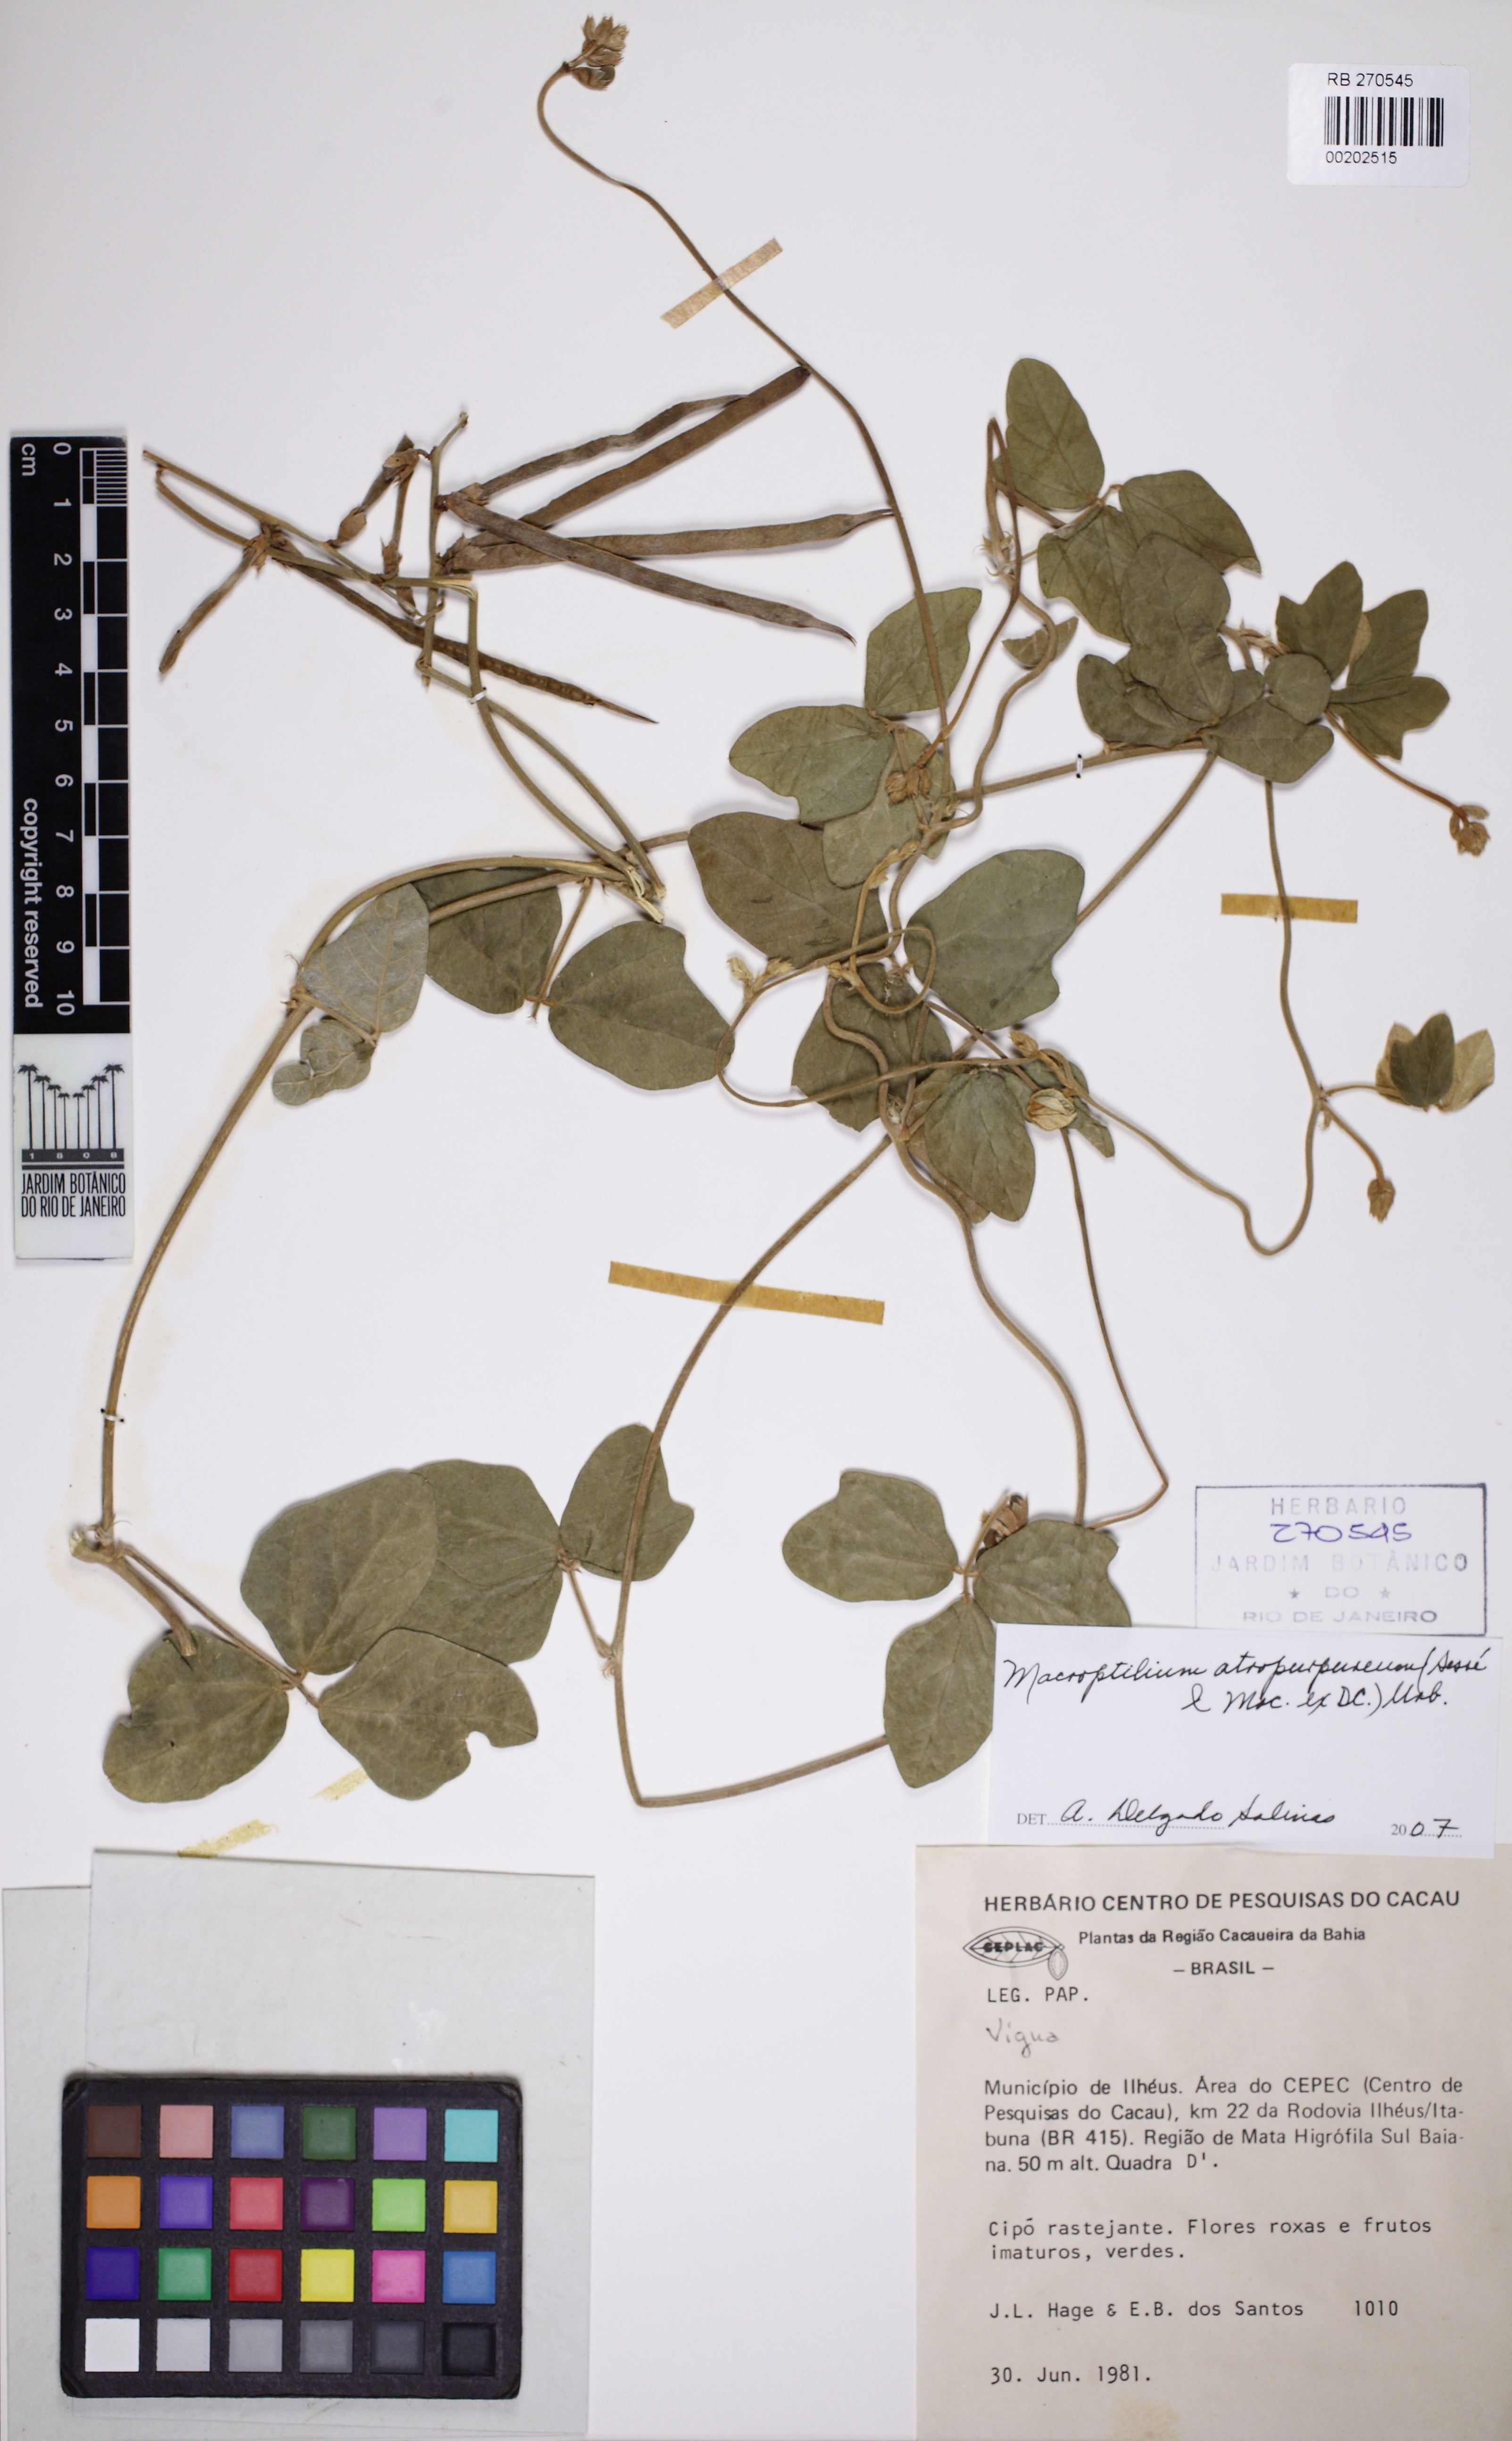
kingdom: Plantae
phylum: Tracheophyta
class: Magnoliopsida
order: Fabales
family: Fabaceae
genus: Macroptilium
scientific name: Macroptilium atropurpureum
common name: Purple bushbean
